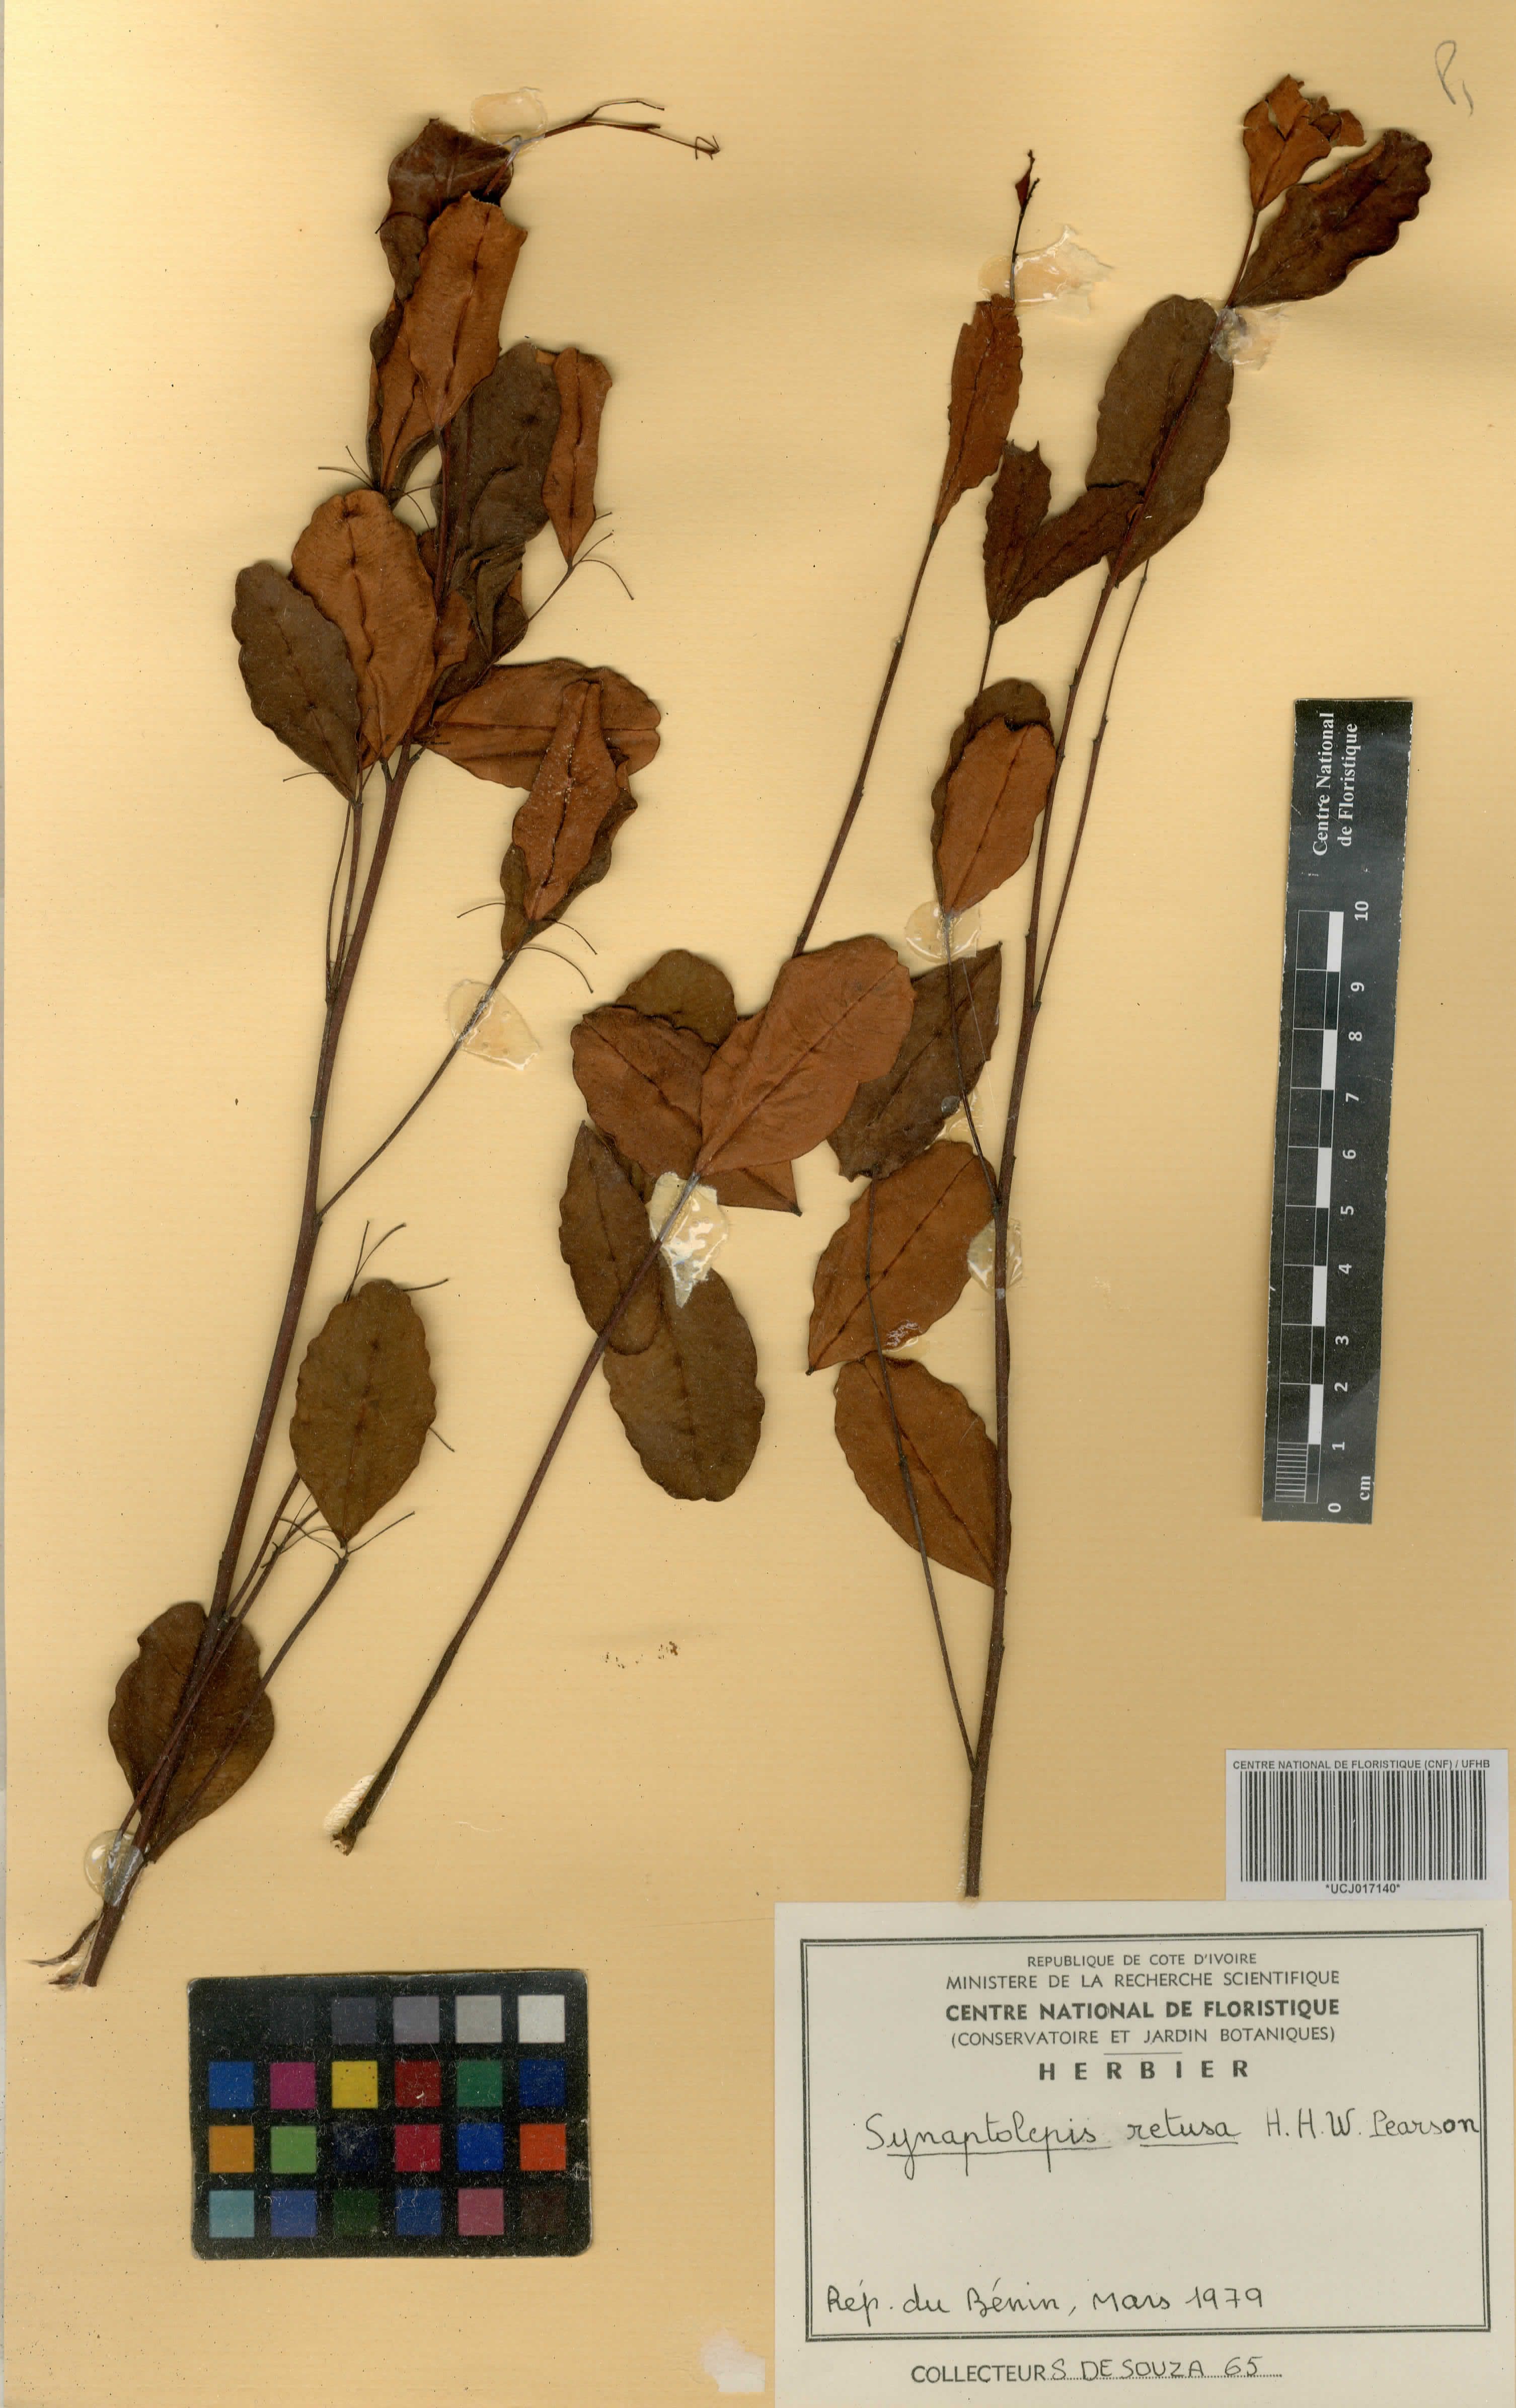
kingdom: Plantae
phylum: Tracheophyta
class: Magnoliopsida
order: Malvales
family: Thymelaeaceae
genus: Synaptolepis
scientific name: Synaptolepis retusa
